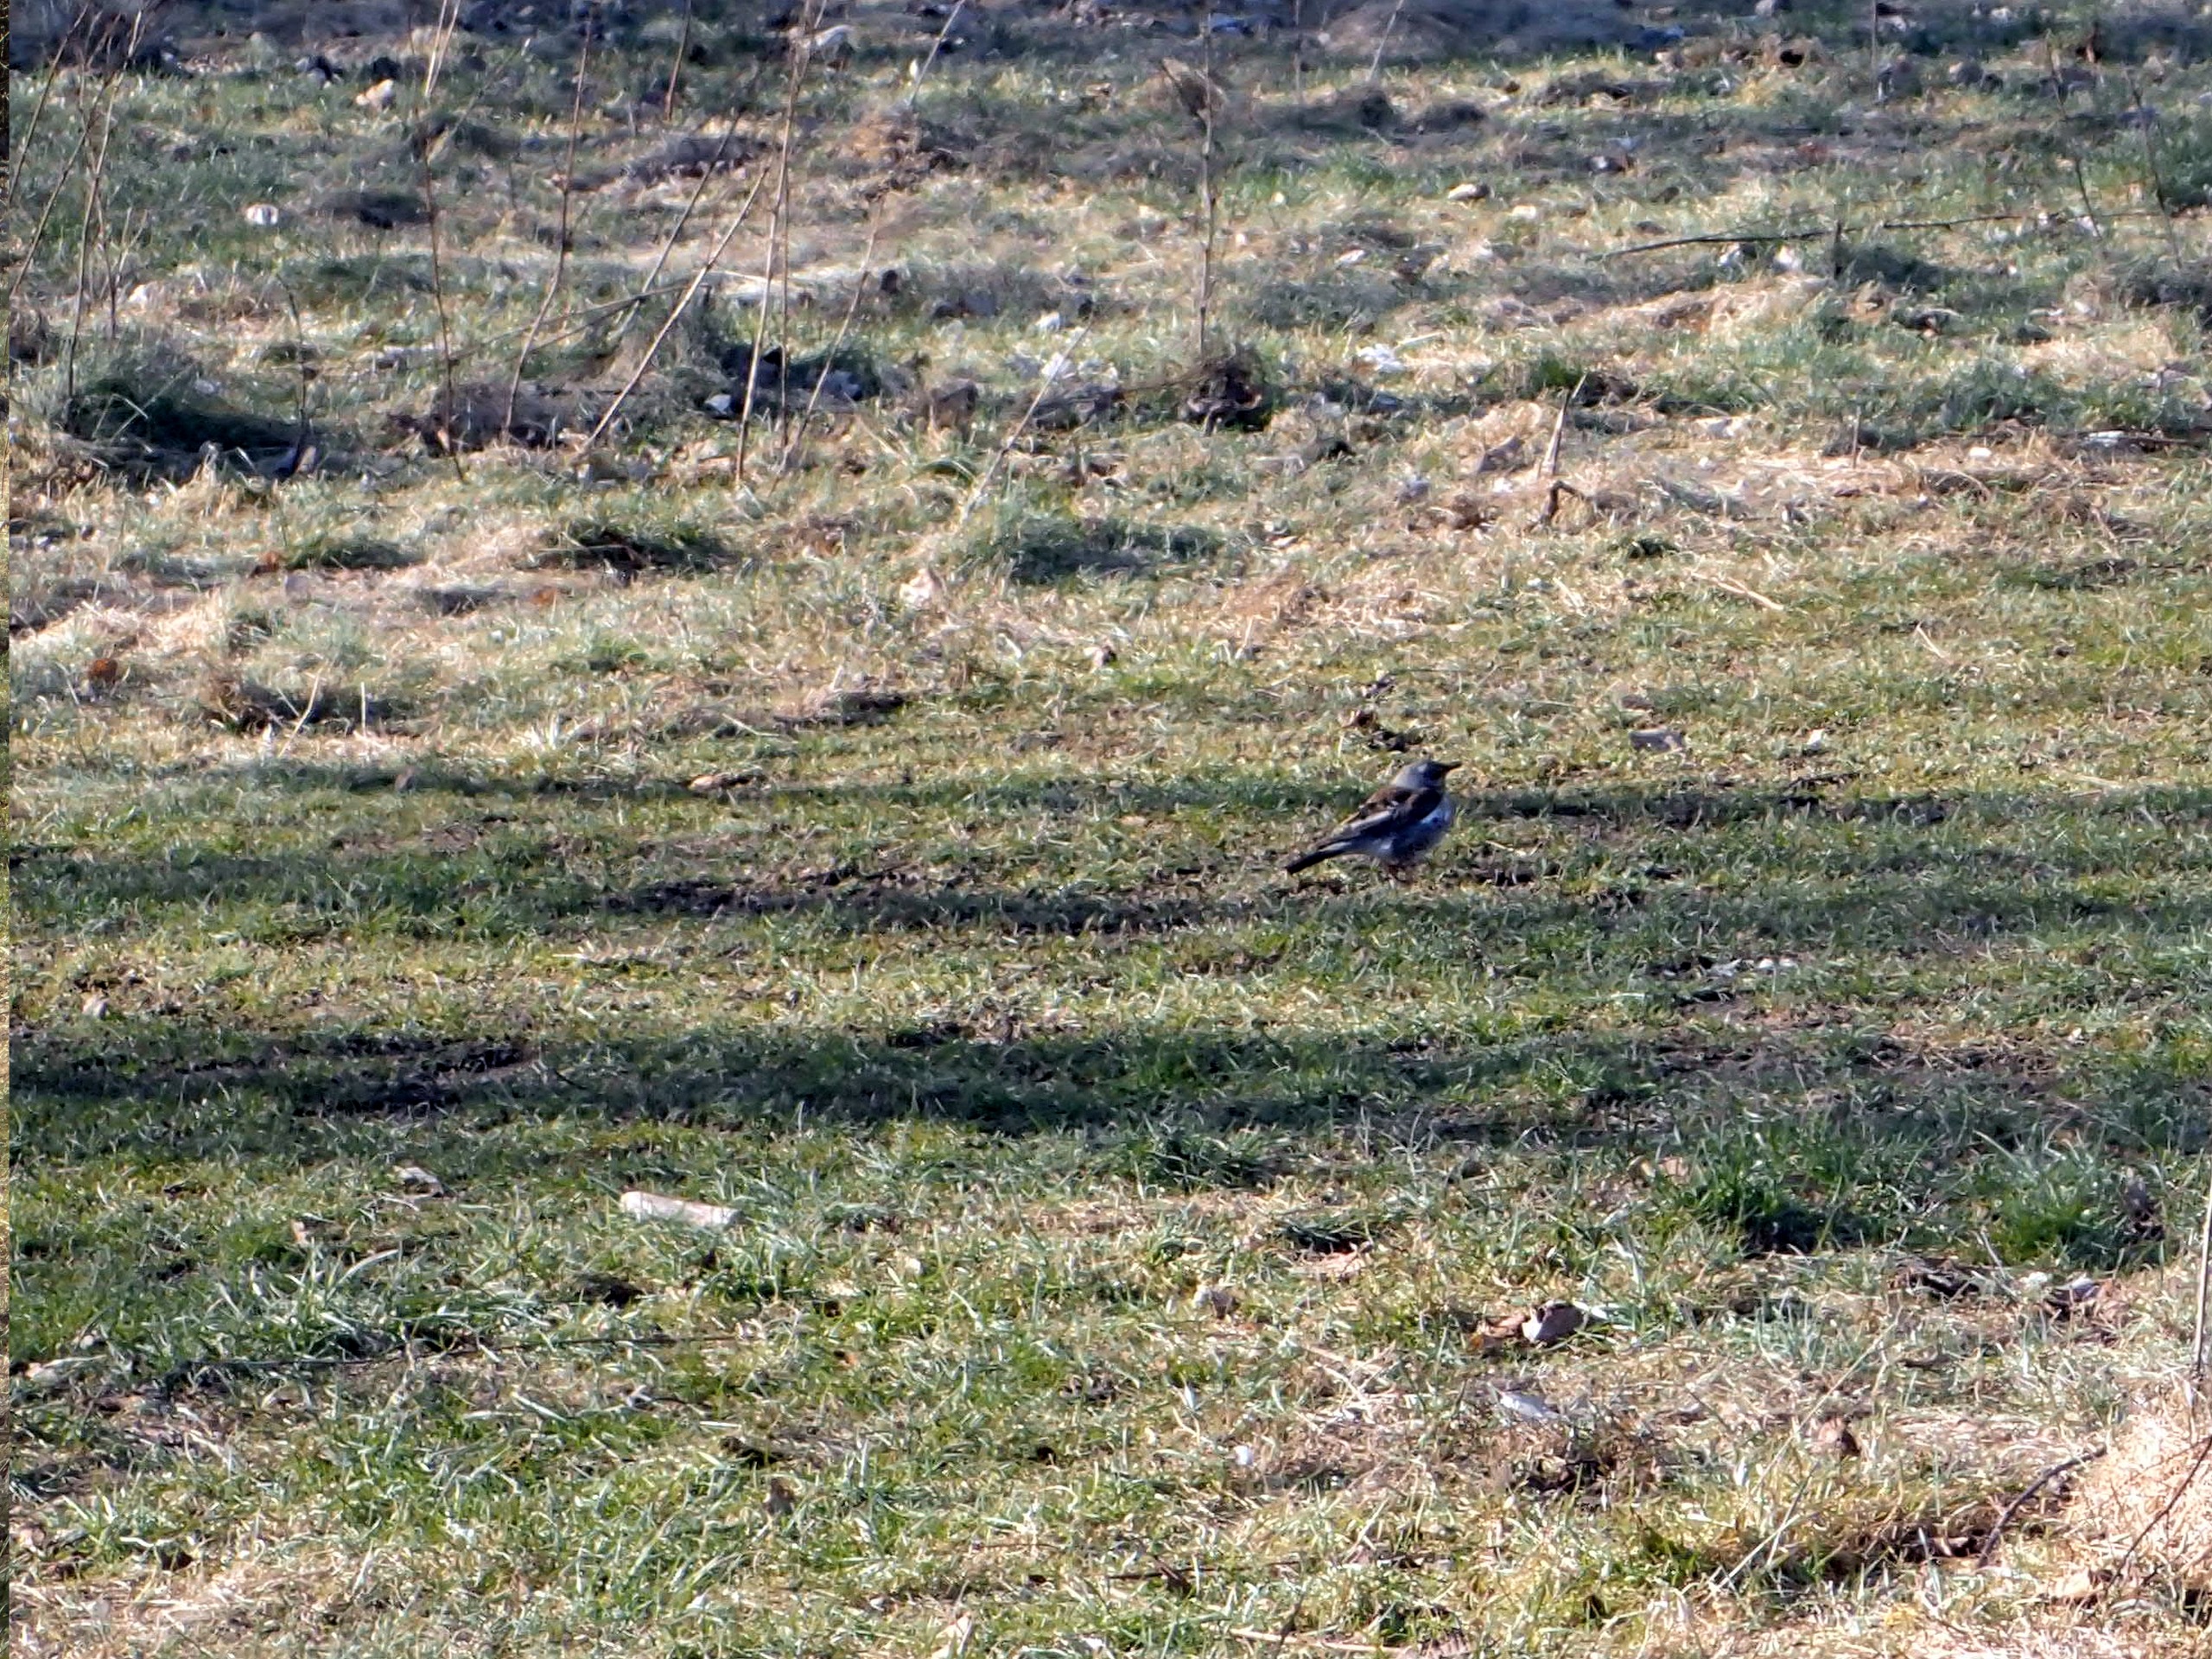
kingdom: Animalia
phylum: Chordata
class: Aves
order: Passeriformes
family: Turdidae
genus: Turdus
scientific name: Turdus pilaris
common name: Sjagger
